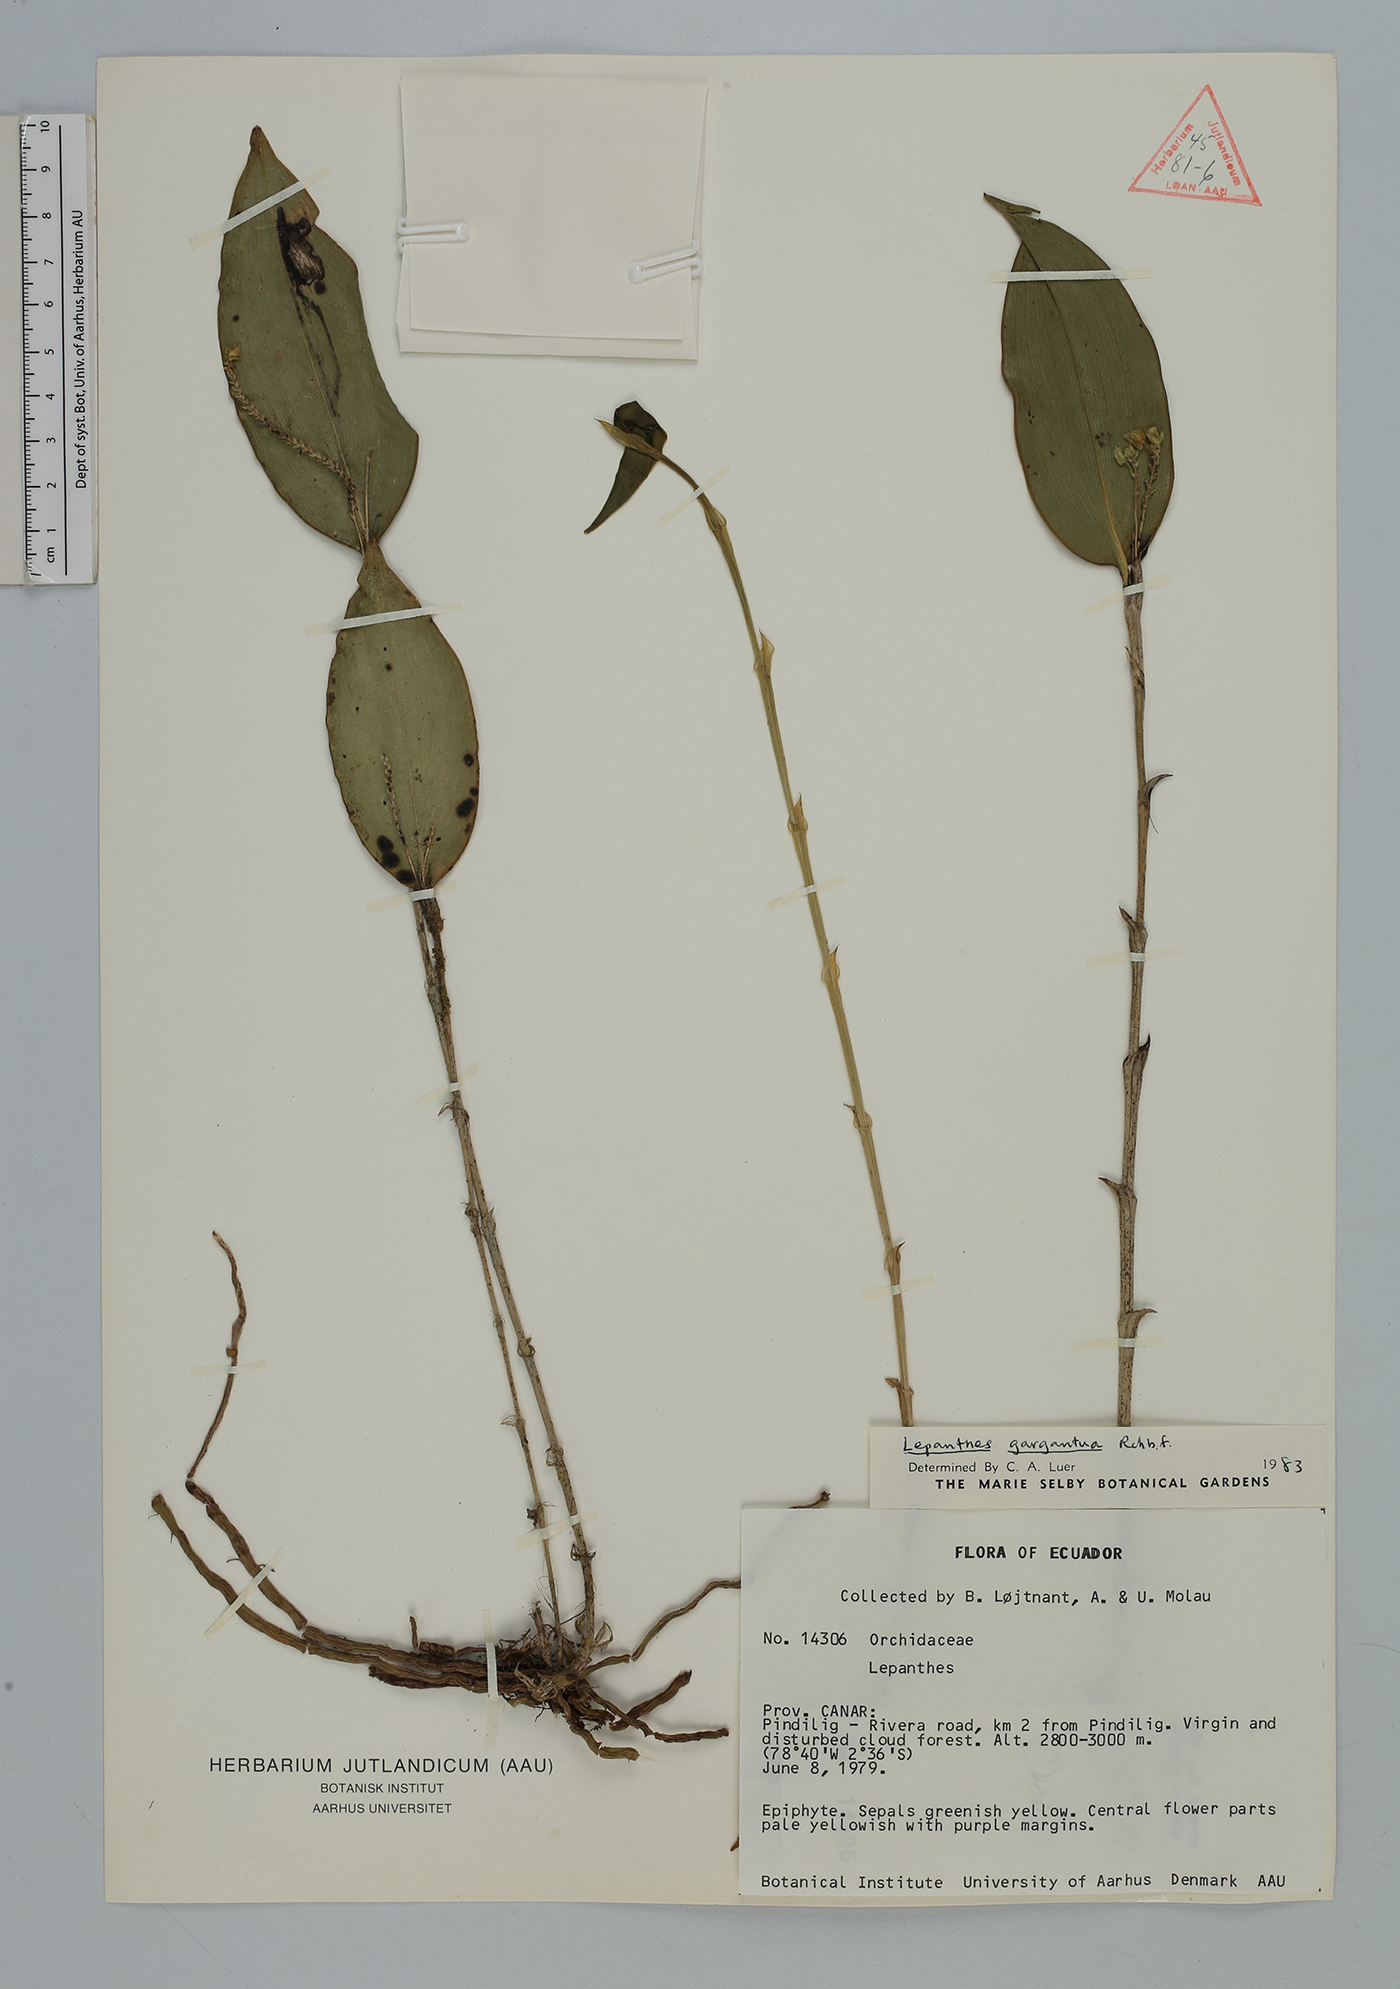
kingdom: Plantae
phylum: Tracheophyta
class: Liliopsida
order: Asparagales
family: Orchidaceae
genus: Lepanthes
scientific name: Lepanthes
